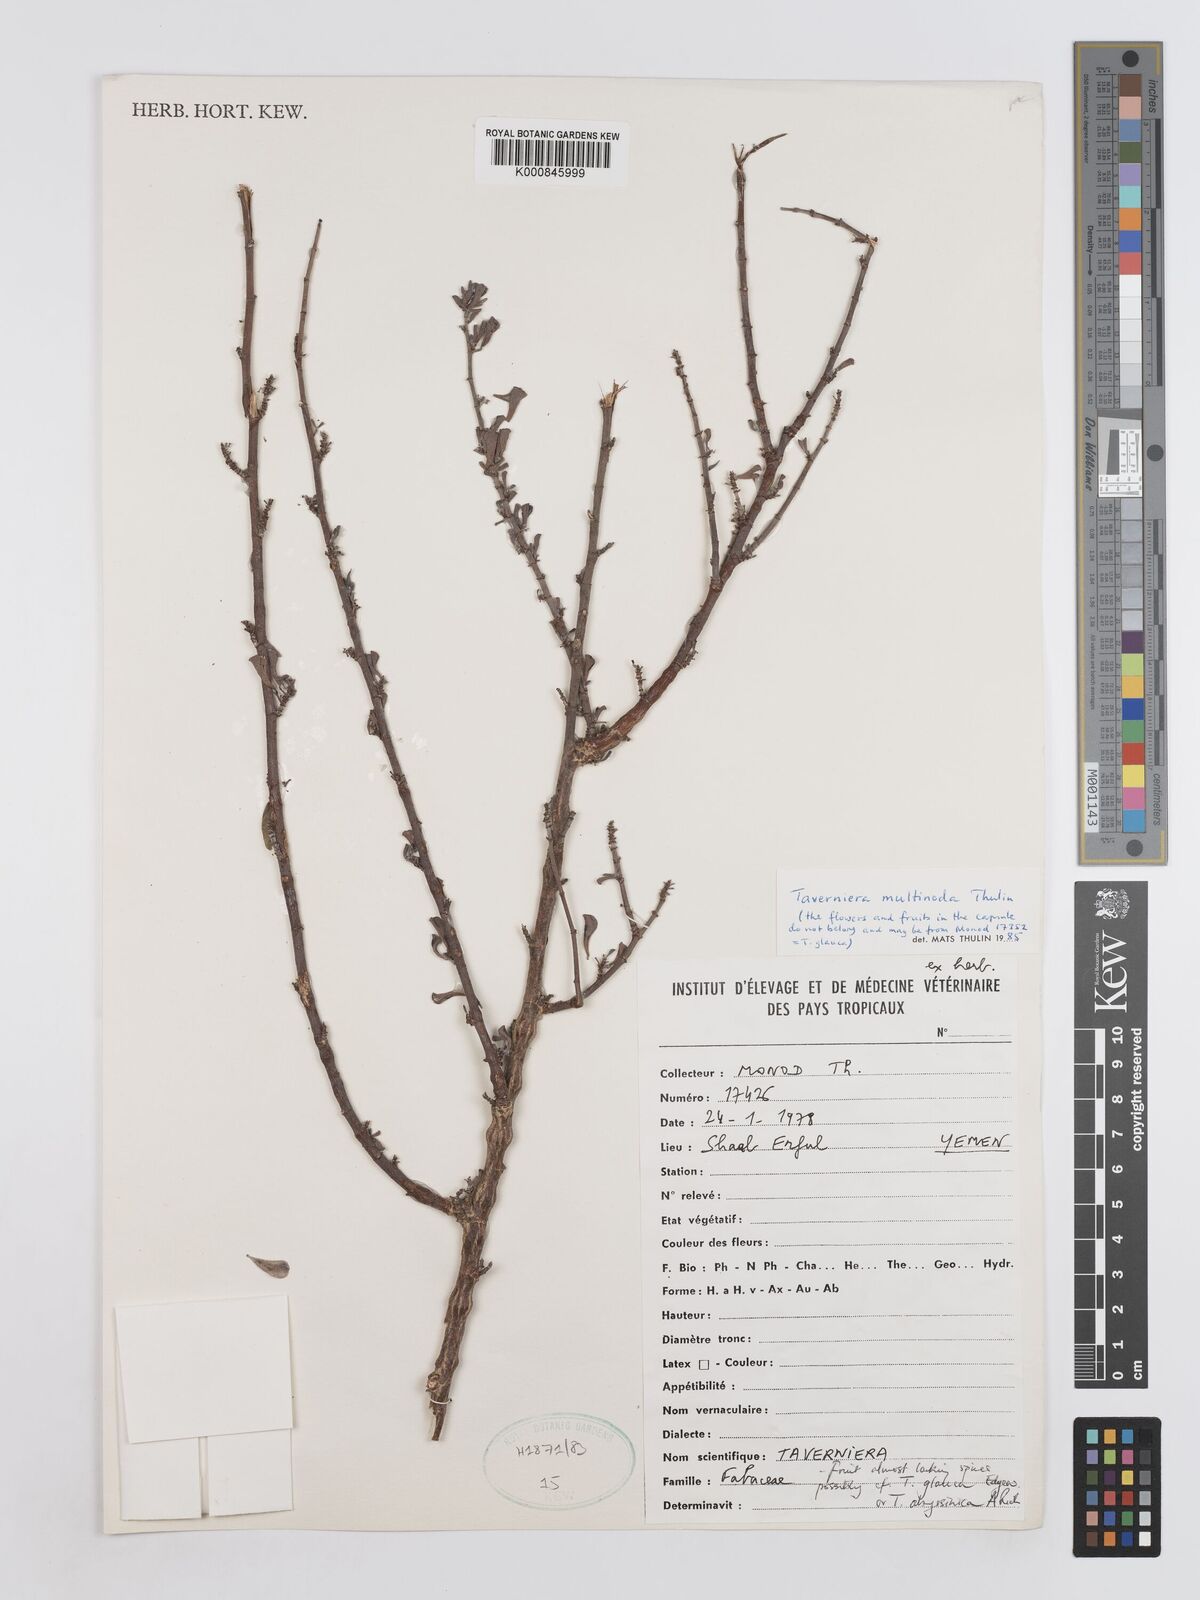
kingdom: Plantae
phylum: Tracheophyta
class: Magnoliopsida
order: Fabales
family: Fabaceae
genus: Taverniera
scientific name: Taverniera multinoda
